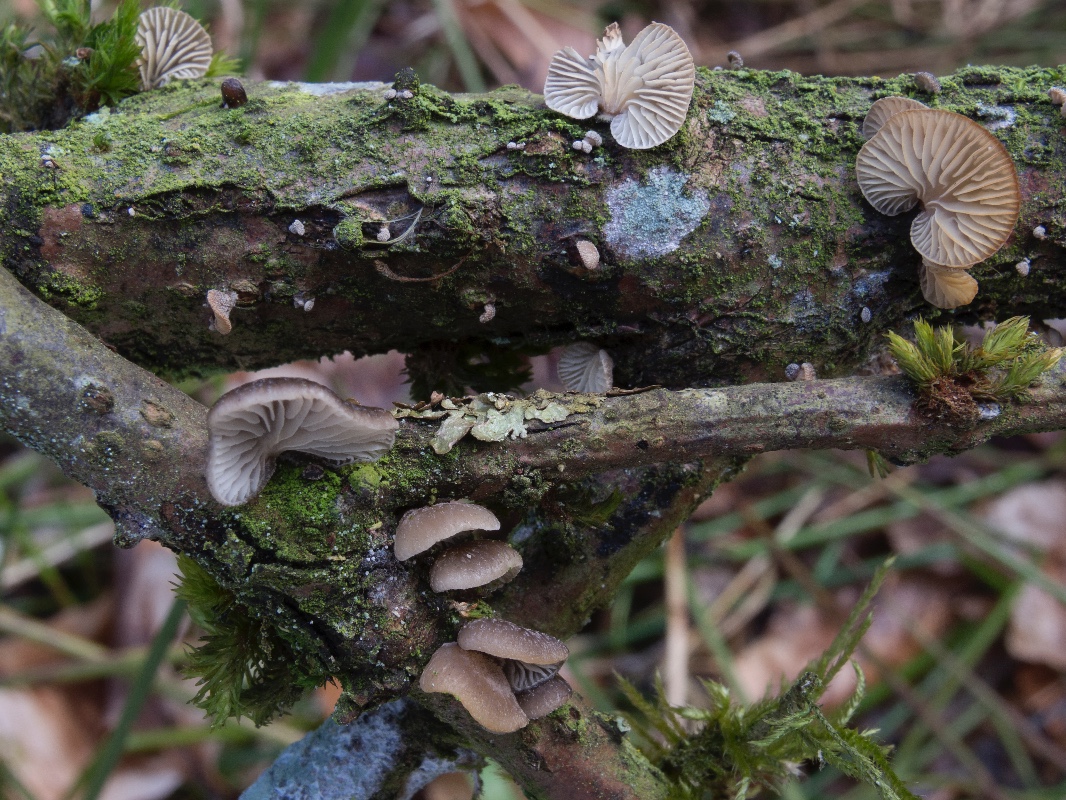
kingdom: Fungi
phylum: Basidiomycota
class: Agaricomycetes
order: Agaricales
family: Pleurotaceae
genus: Hohenbuehelia
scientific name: Hohenbuehelia fluxilis
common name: pile-filthat
